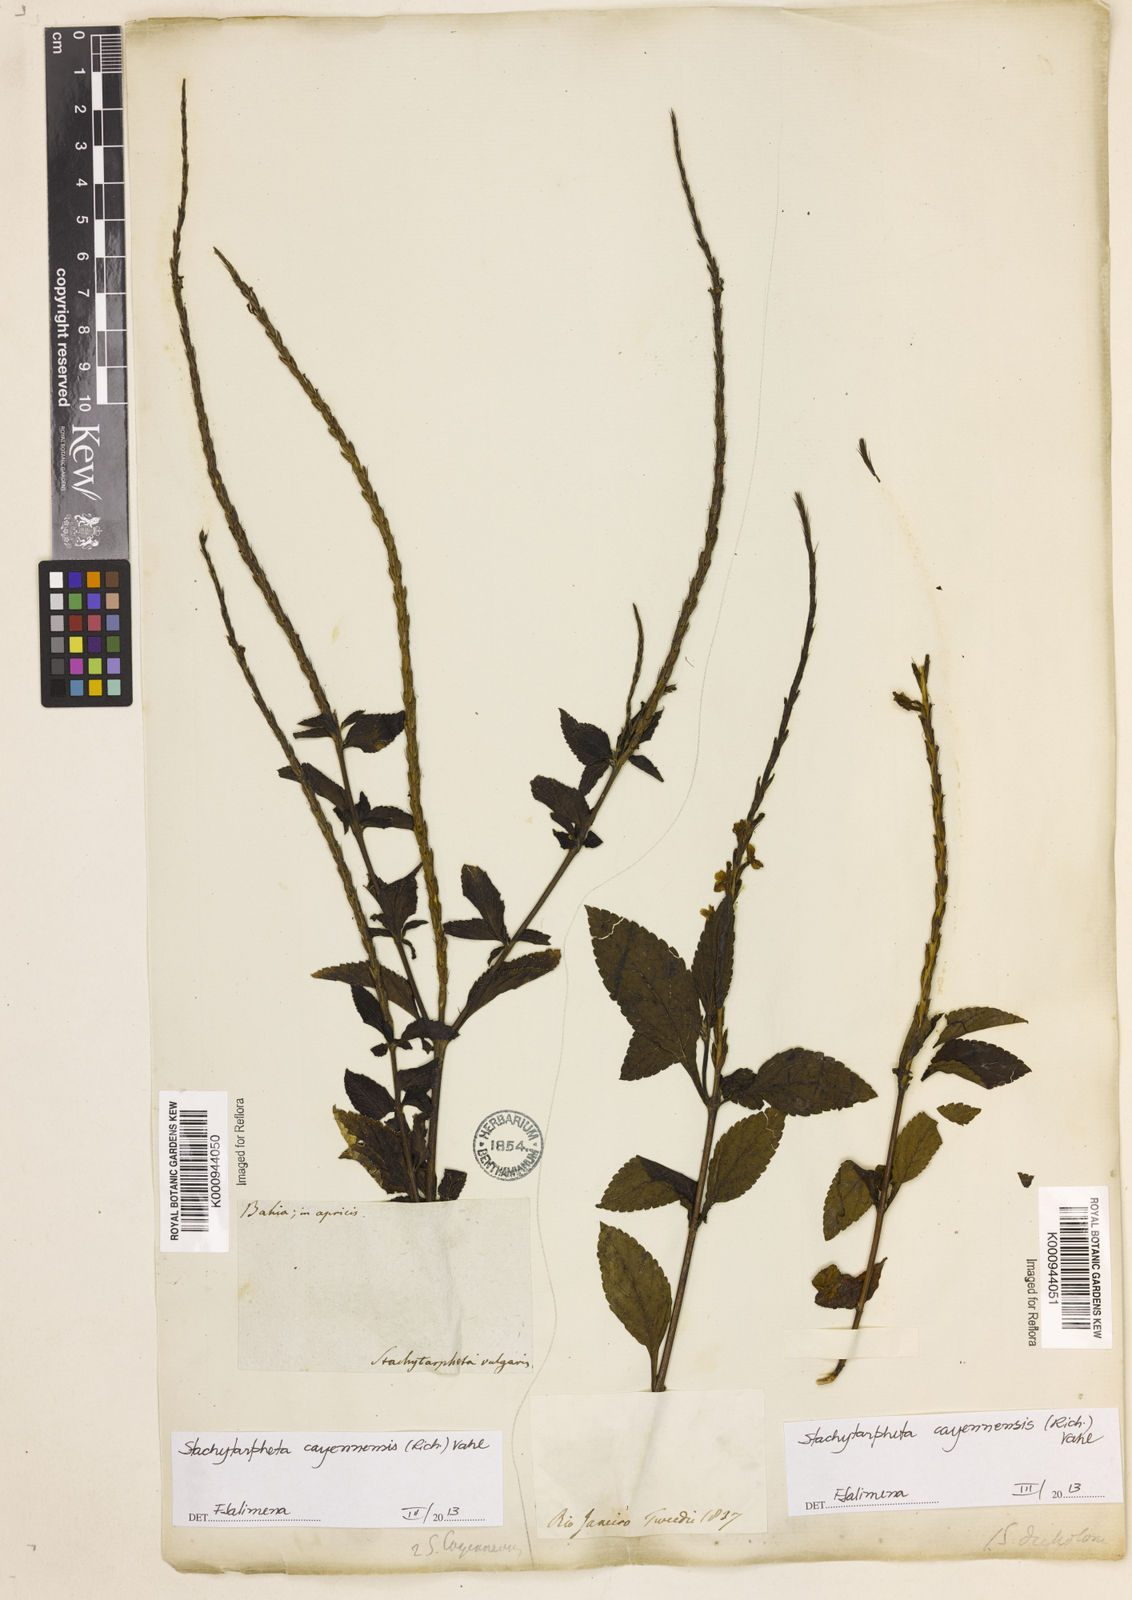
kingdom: Plantae
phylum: Tracheophyta
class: Magnoliopsida
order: Lamiales
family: Verbenaceae
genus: Aloysia
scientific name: Aloysia
